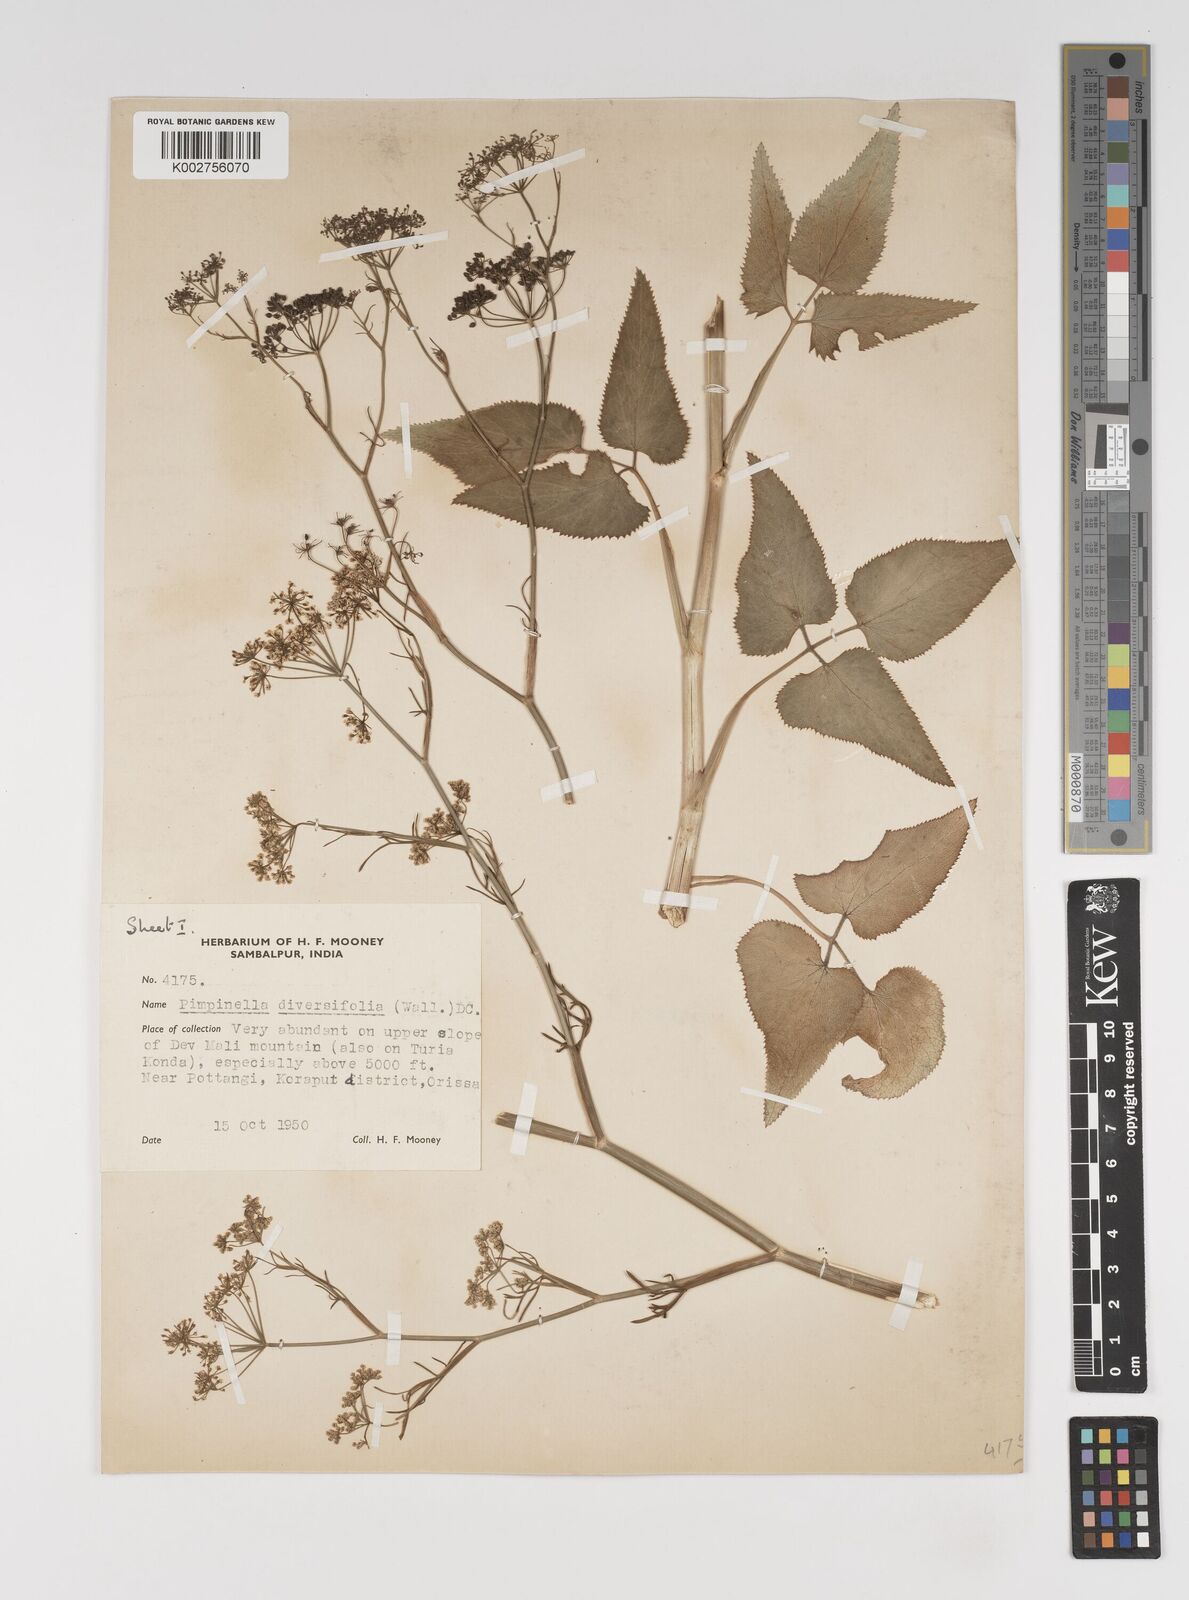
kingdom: Plantae
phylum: Tracheophyta
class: Magnoliopsida
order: Apiales
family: Apiaceae
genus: Pimpinella
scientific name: Pimpinella diversifolia
